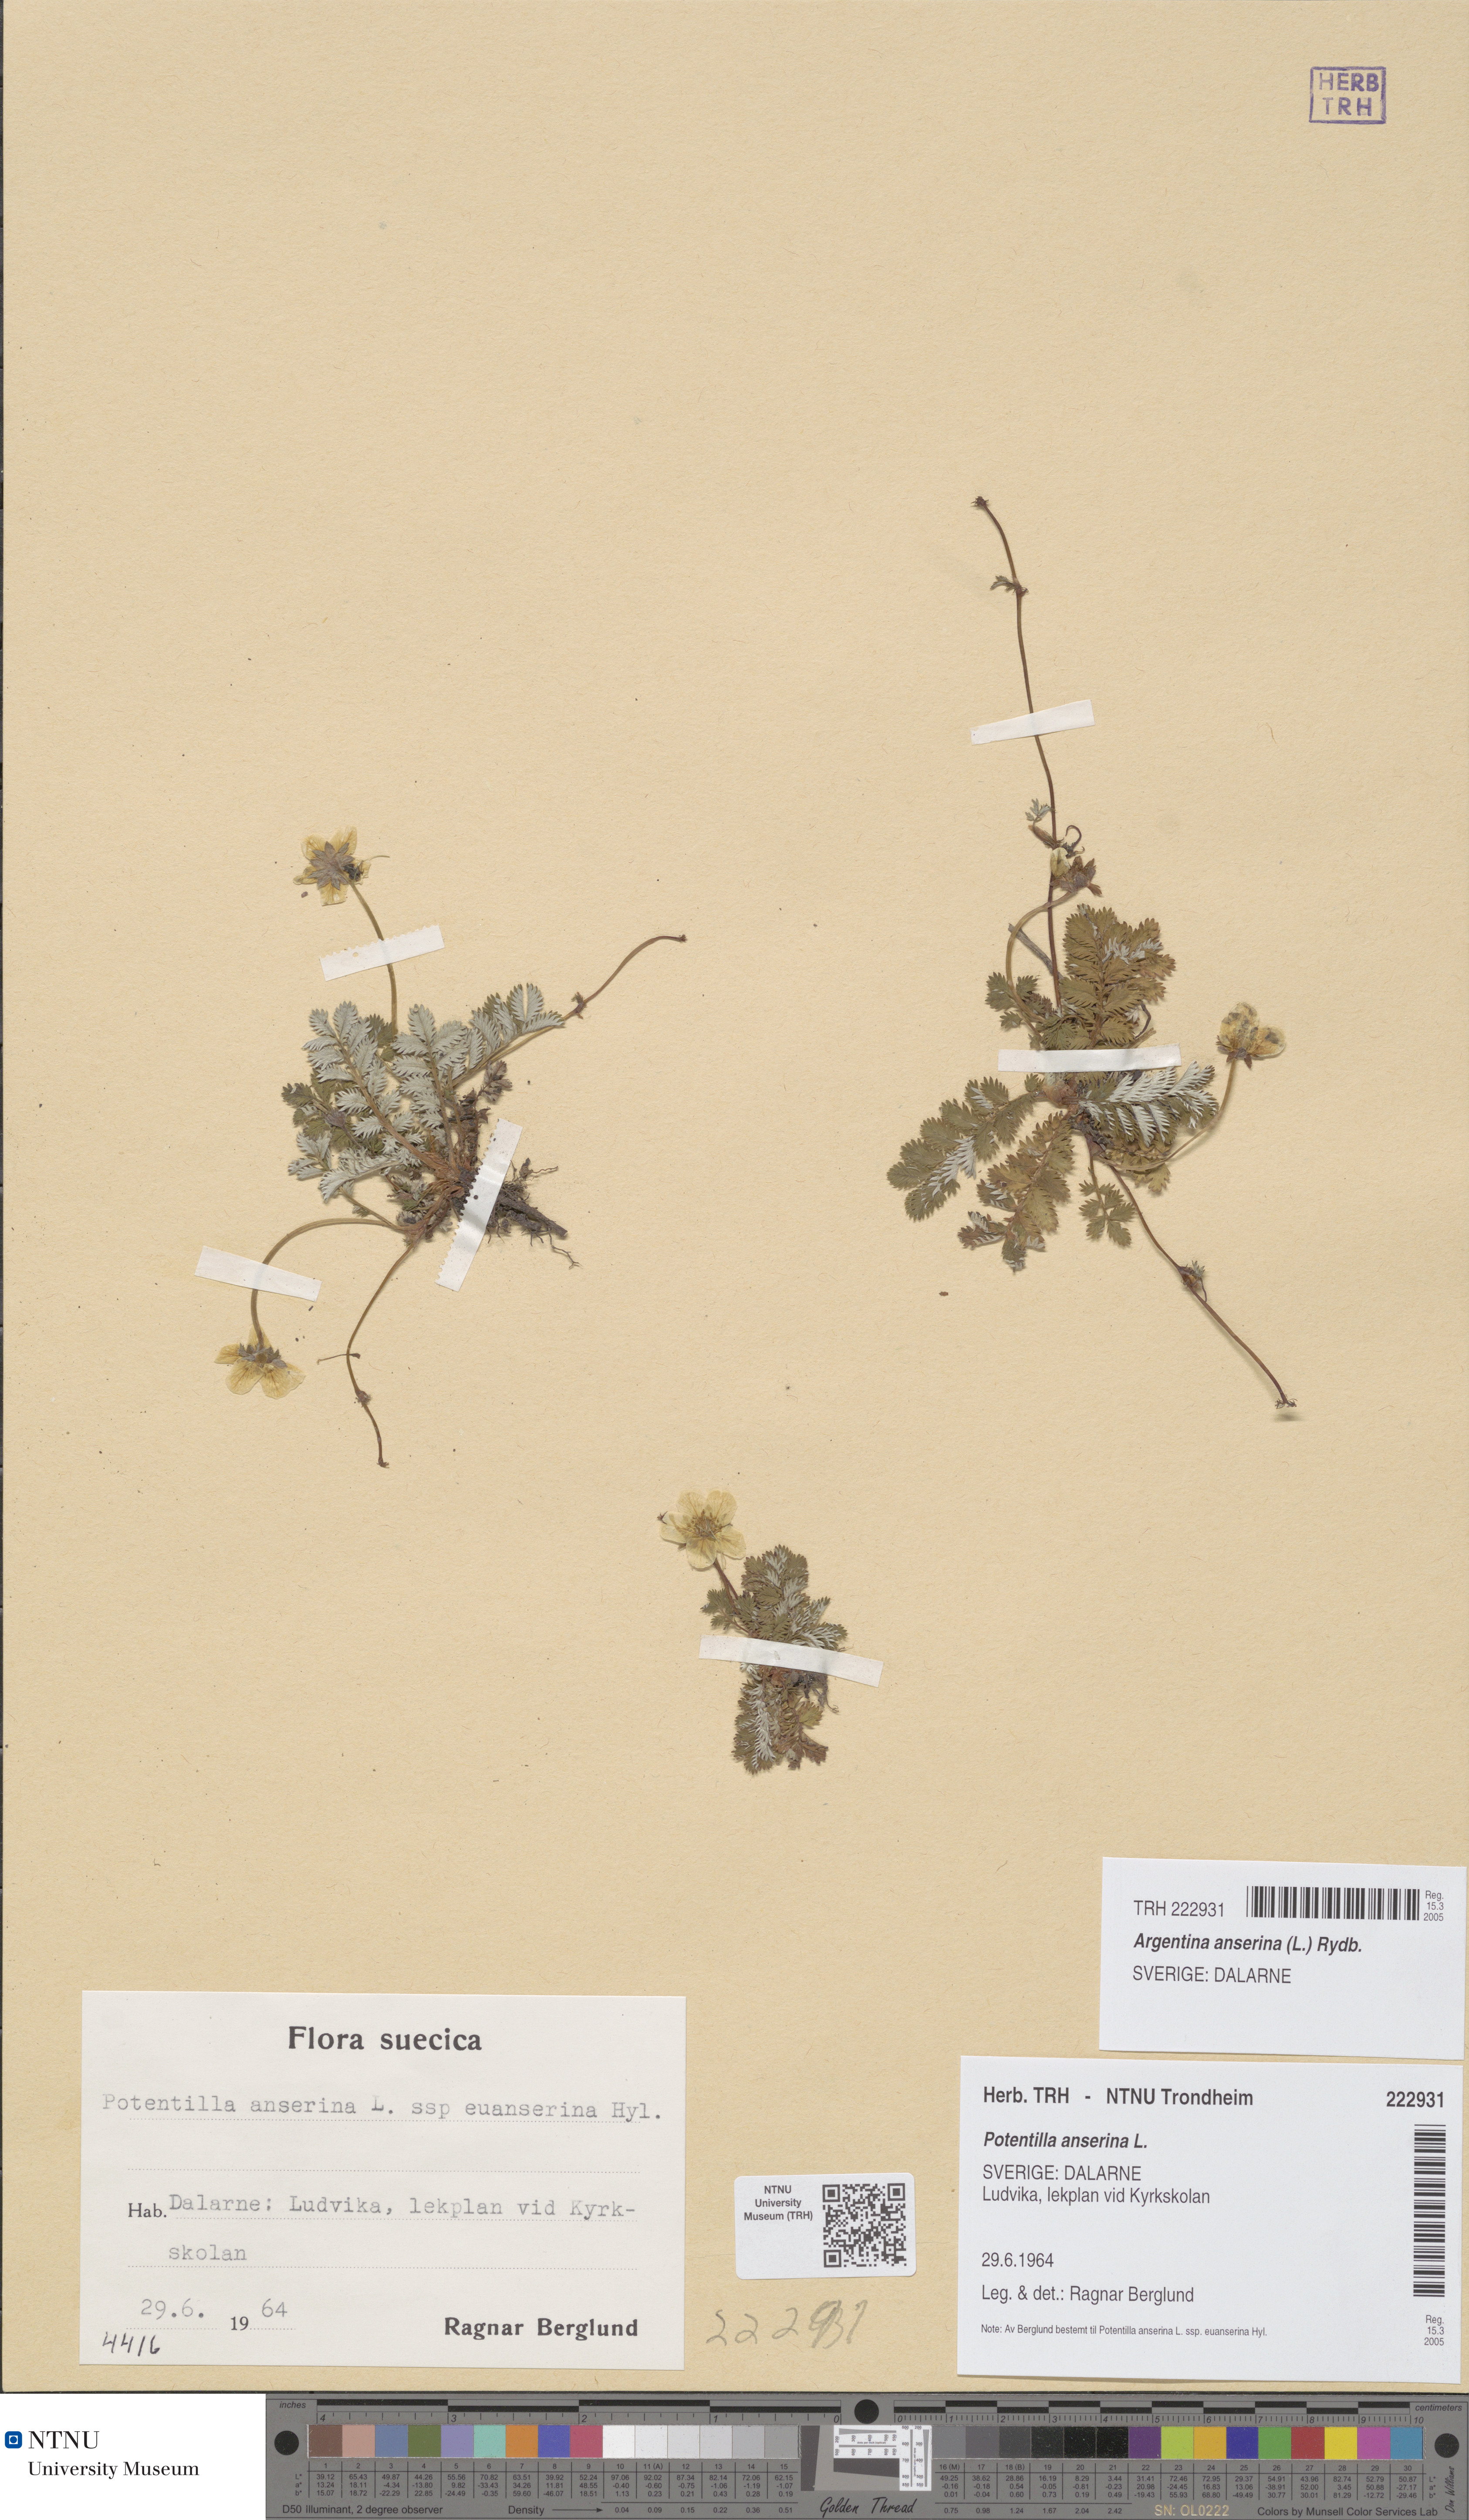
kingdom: Plantae
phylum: Tracheophyta
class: Magnoliopsida
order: Rosales
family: Rosaceae
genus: Argentina
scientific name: Argentina anserina
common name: Common silverweed
